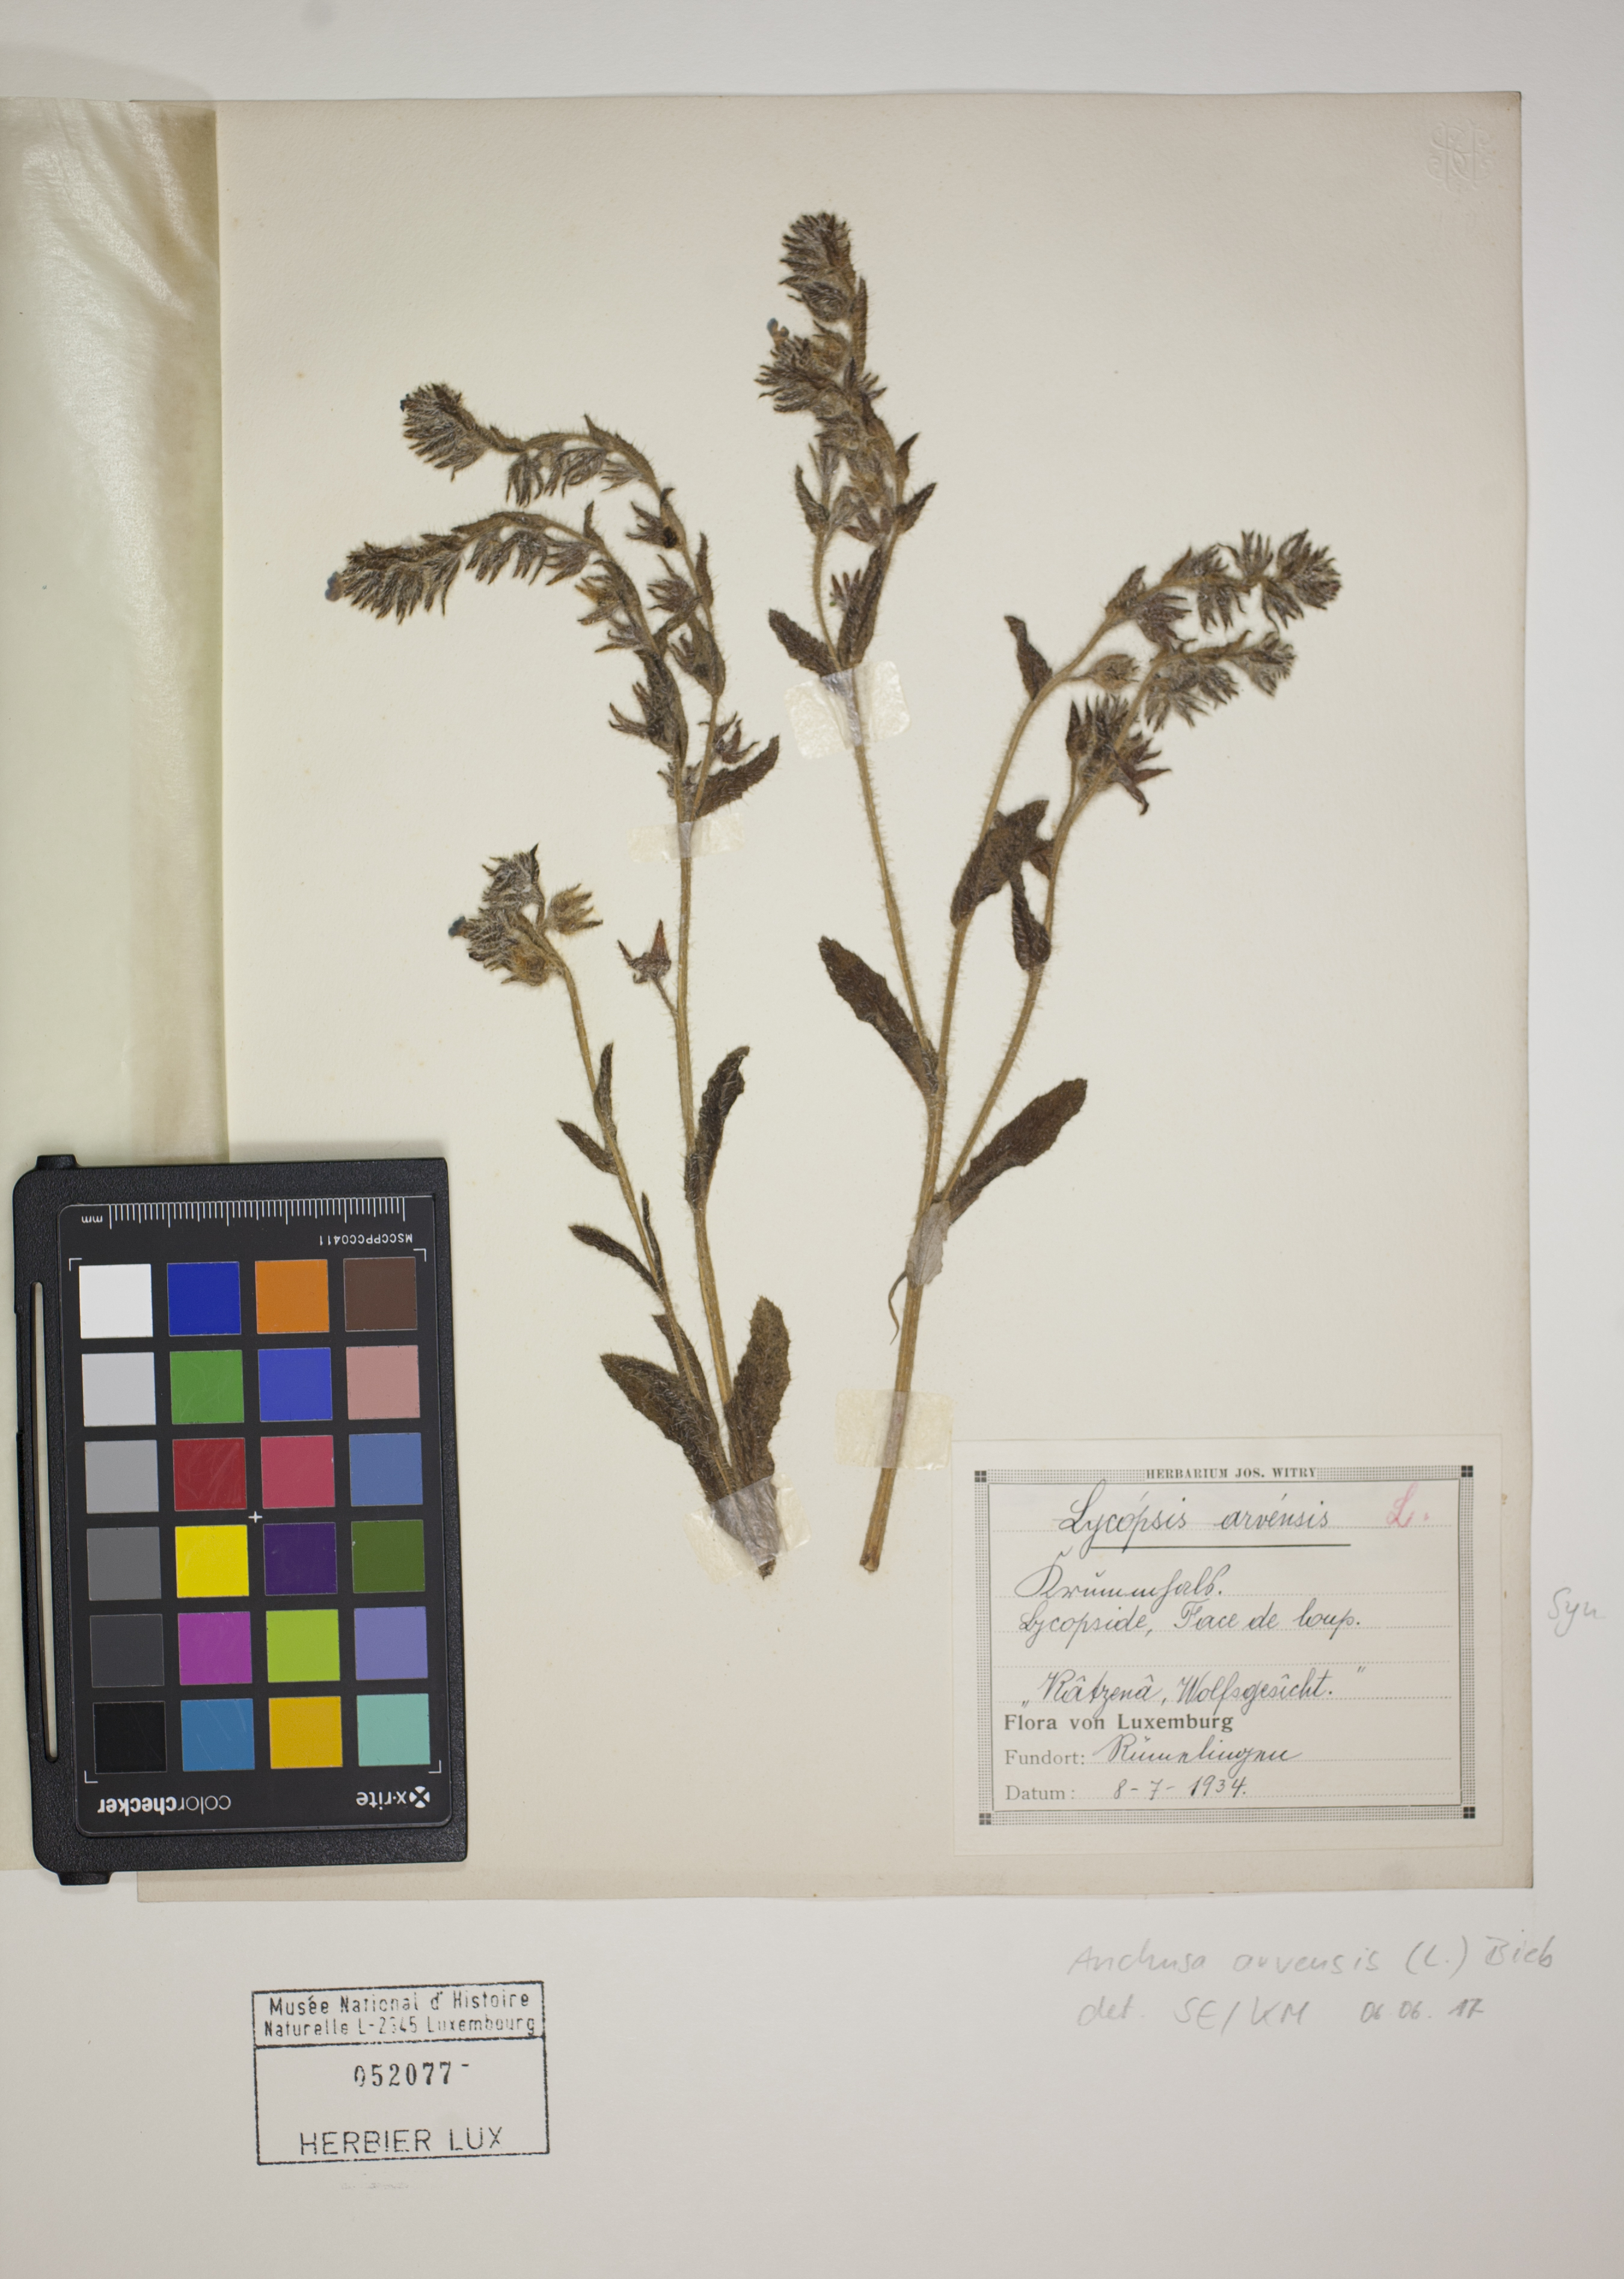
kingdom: Plantae
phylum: Tracheophyta
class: Magnoliopsida
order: Boraginales
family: Boraginaceae
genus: Lycopsis
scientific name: Lycopsis arvensis
